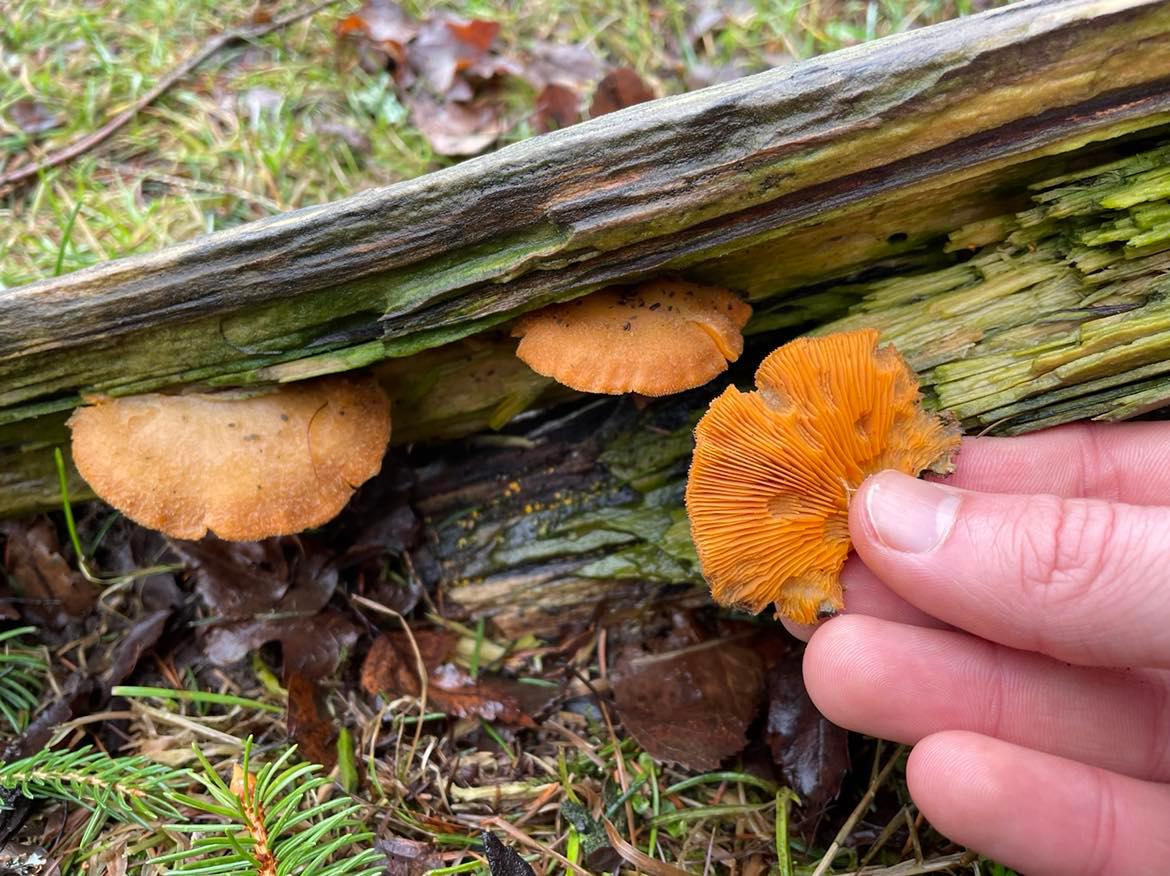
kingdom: Fungi
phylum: Basidiomycota
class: Agaricomycetes
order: Agaricales
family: Phyllotopsidaceae
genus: Phyllotopsis
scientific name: Phyllotopsis nidulans
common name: okkerblad
